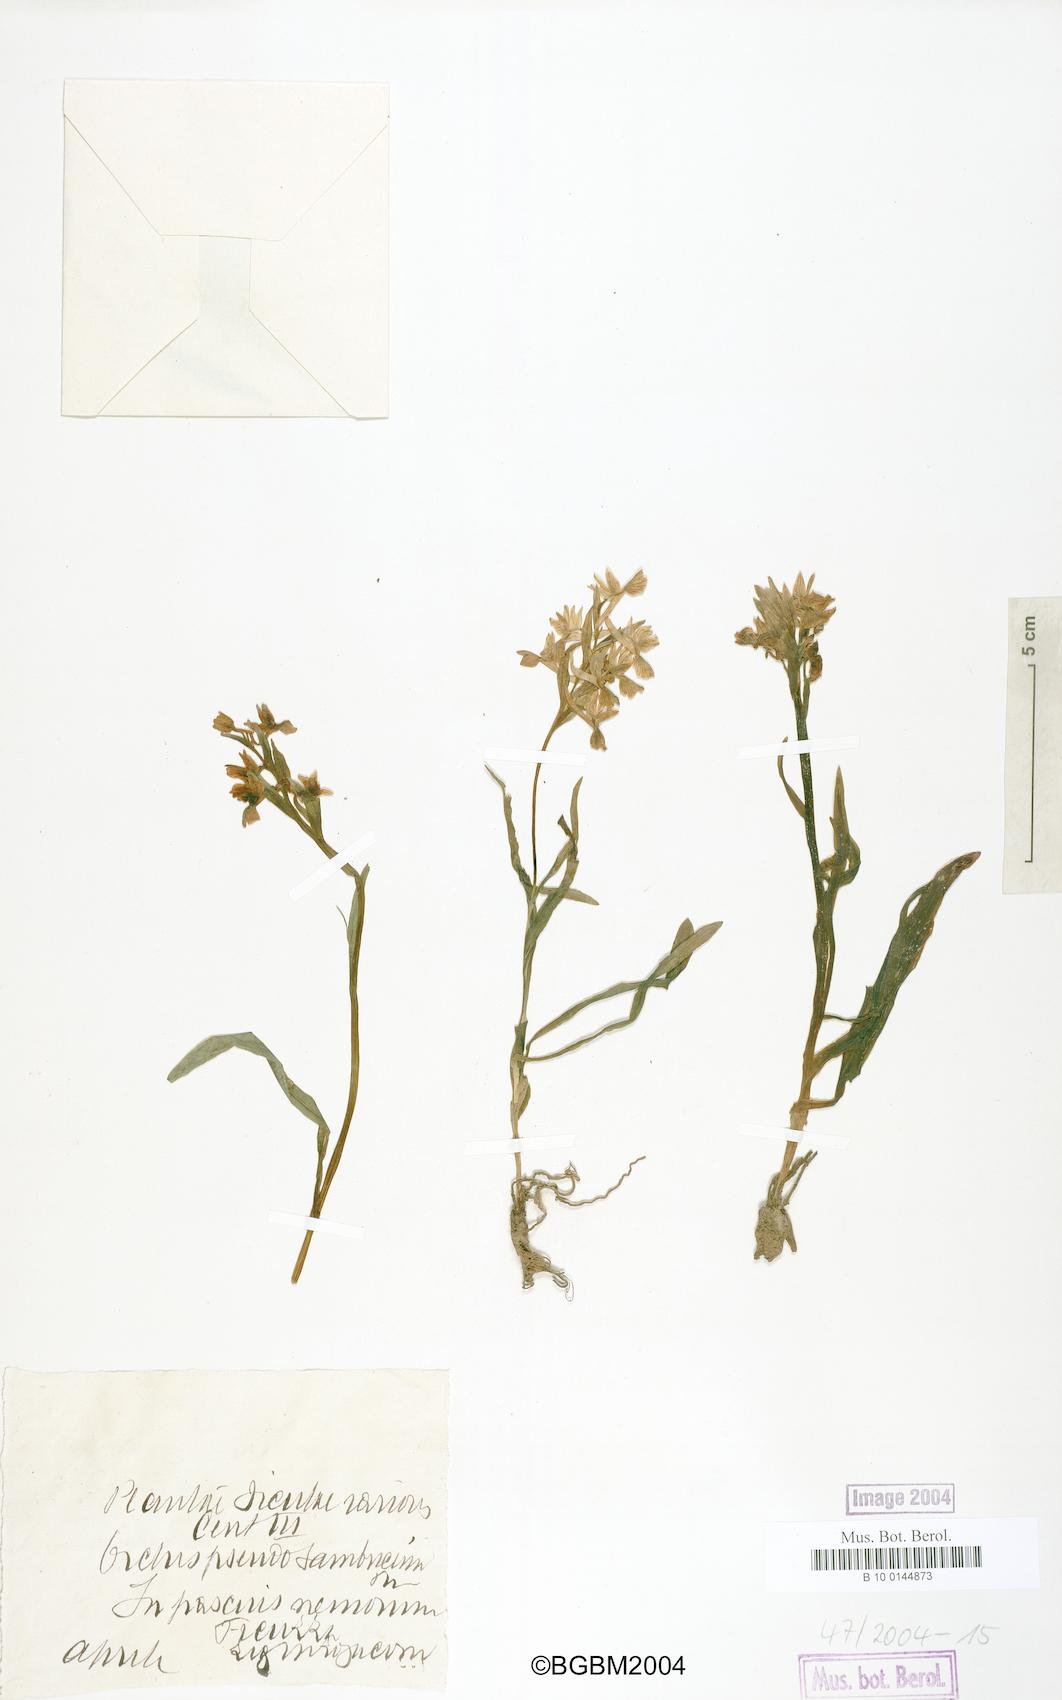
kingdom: Plantae
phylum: Tracheophyta
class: Liliopsida
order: Asparagales
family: Orchidaceae
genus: Dactylorhiza
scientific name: Dactylorhiza romana
